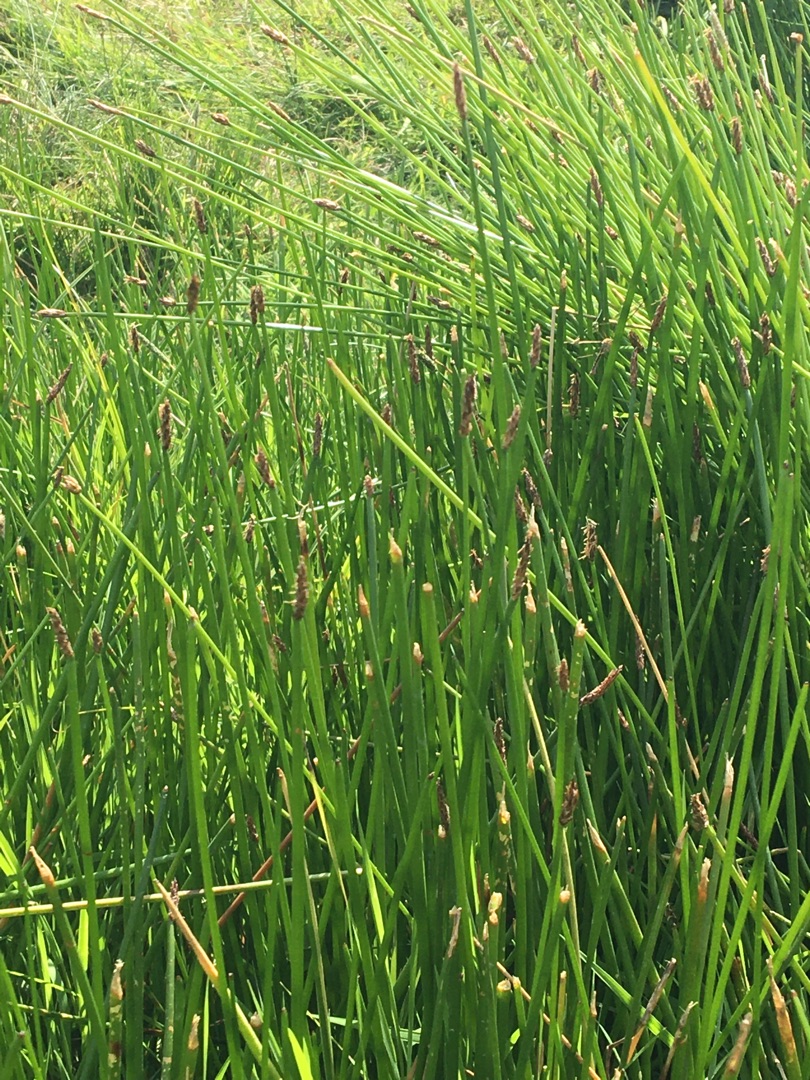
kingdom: Plantae
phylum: Tracheophyta
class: Liliopsida
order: Poales
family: Cyperaceae
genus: Eleocharis
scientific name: Eleocharis
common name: Sumpstråslægten
